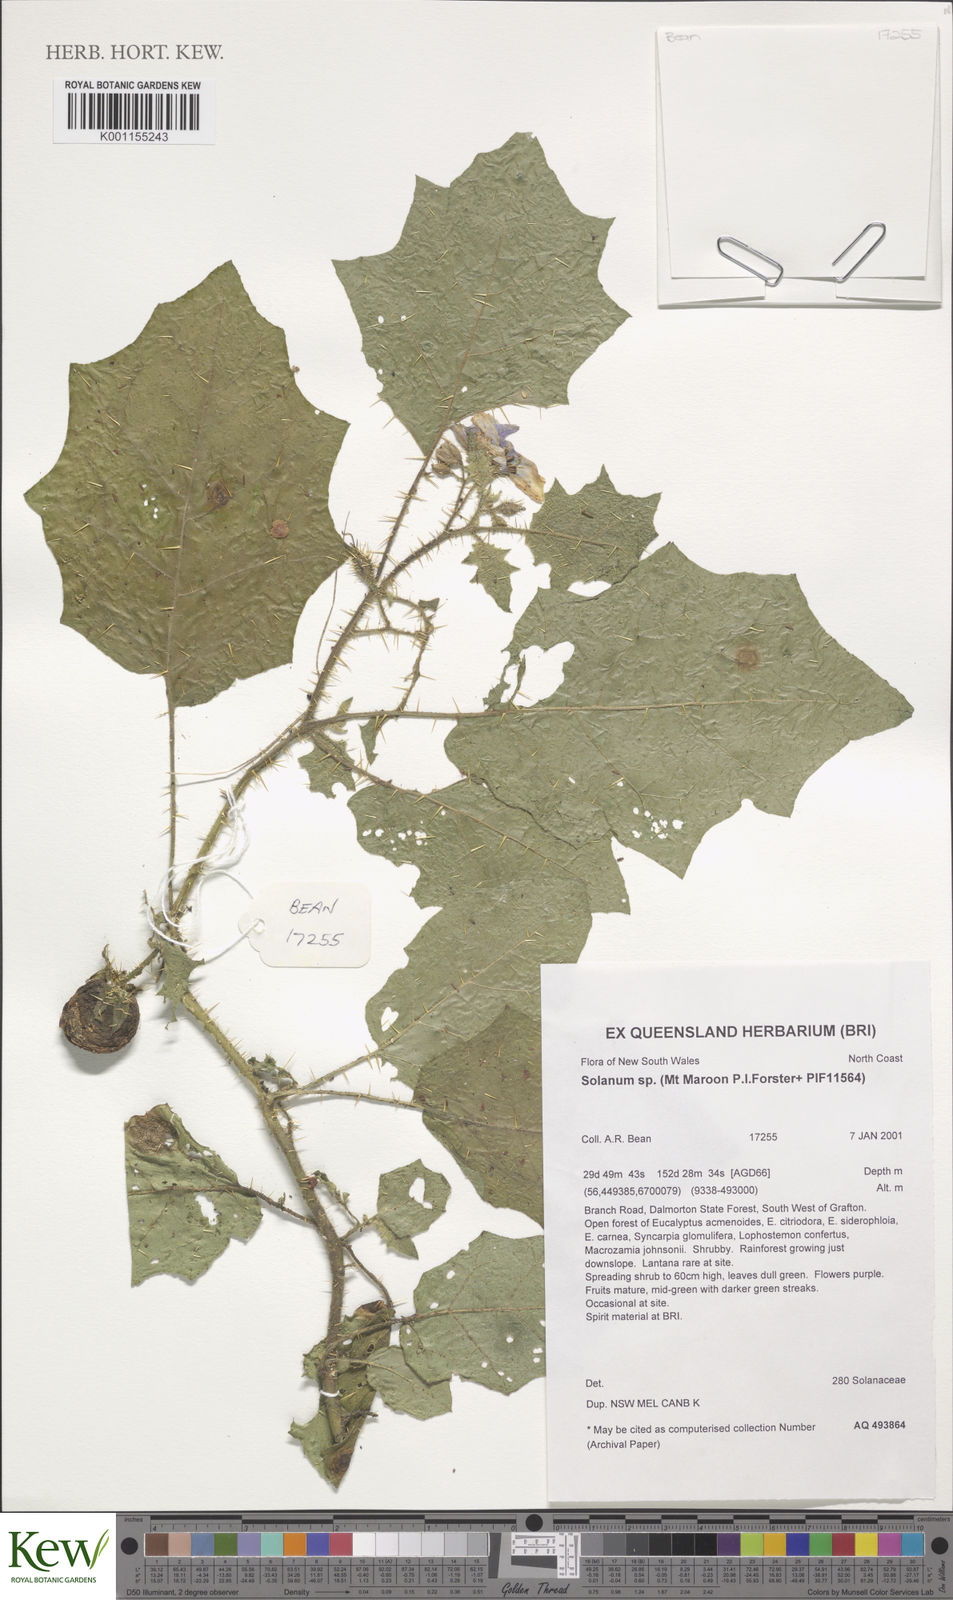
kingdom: Plantae
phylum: Tracheophyta
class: Magnoliopsida
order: Solanales
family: Solanaceae
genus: Solanum
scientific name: Solanum
